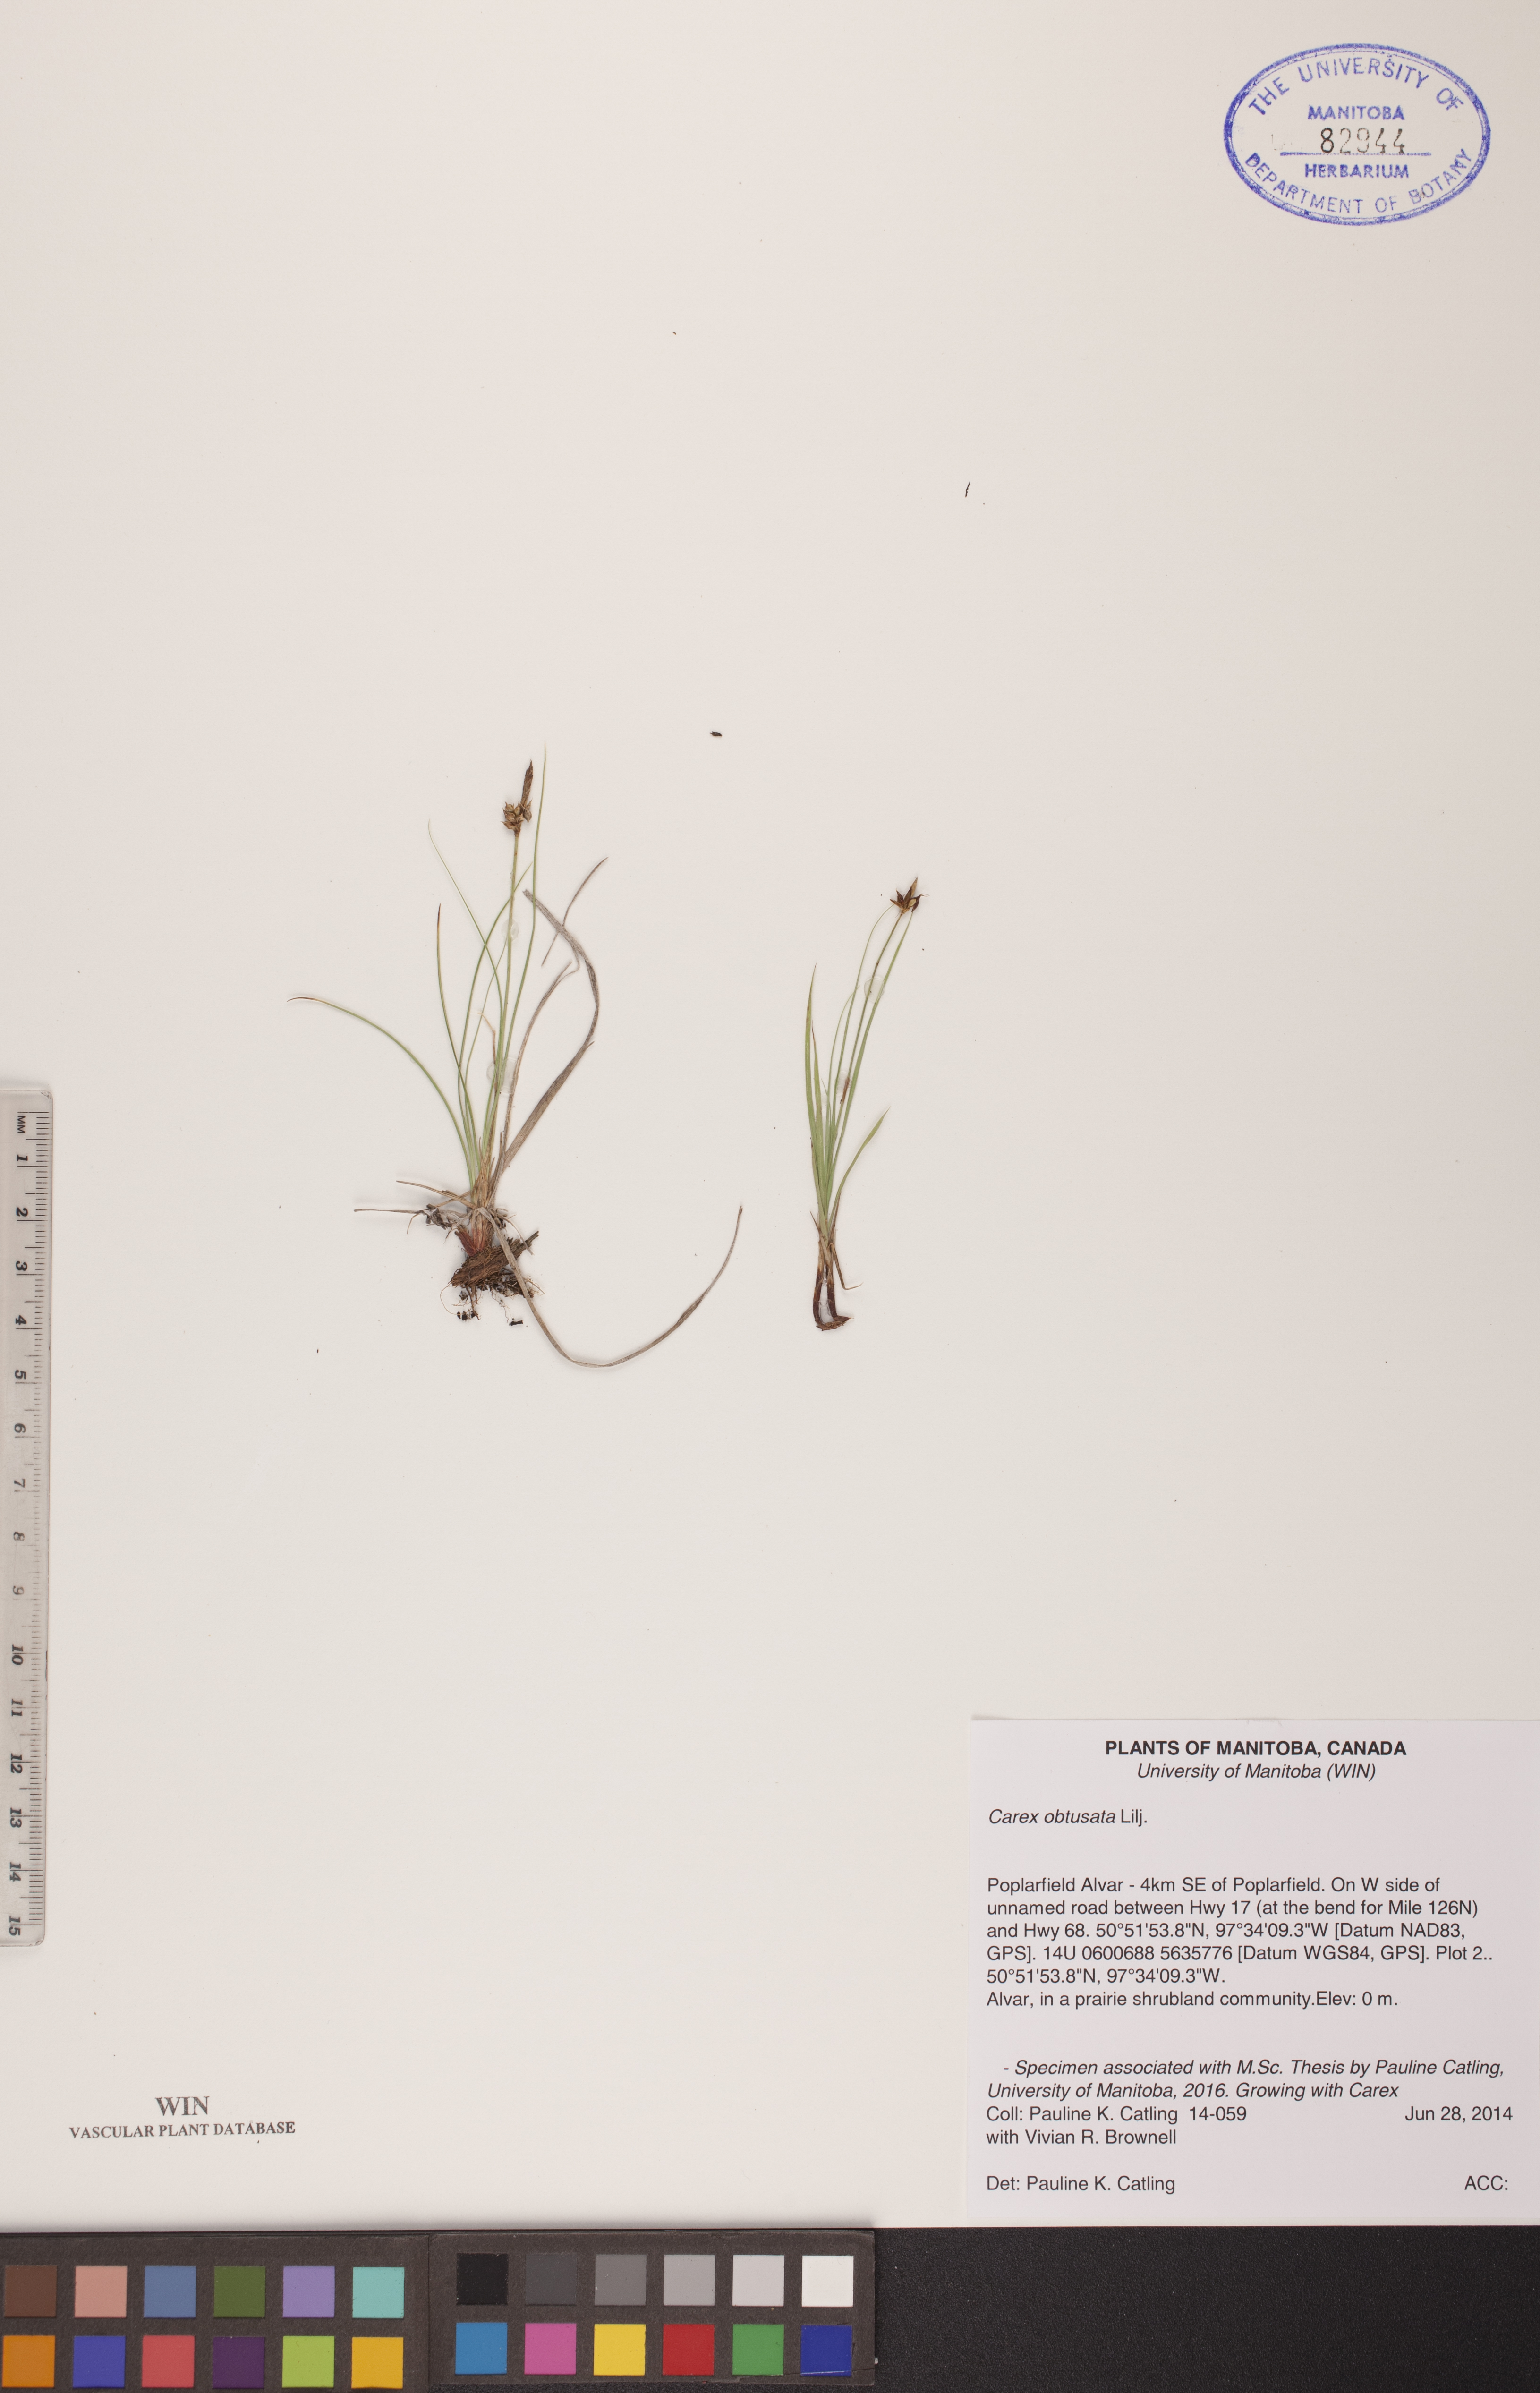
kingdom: Plantae
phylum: Tracheophyta
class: Magnoliopsida
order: Rosales
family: Elaeagnaceae
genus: Shepherdia
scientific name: Shepherdia canadensis
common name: Soapberry
